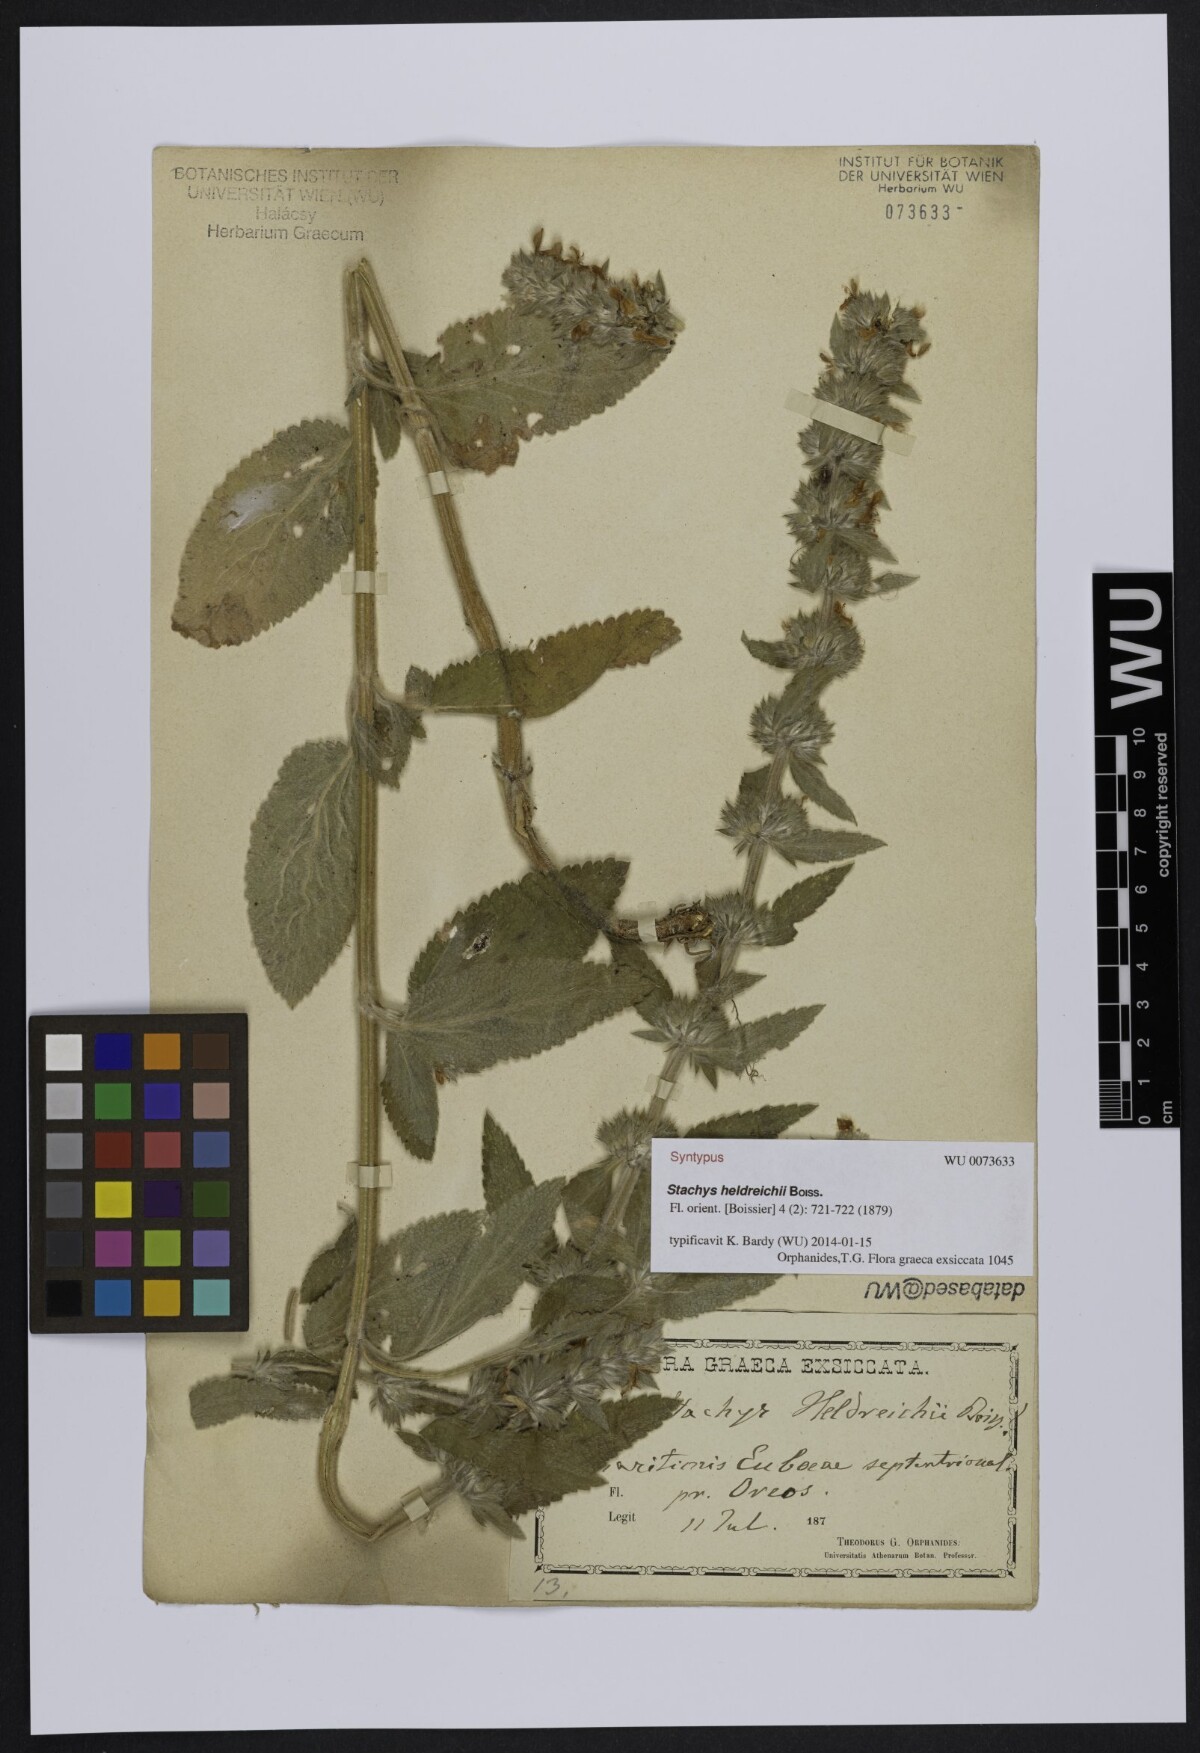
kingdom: Plantae
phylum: Tracheophyta
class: Magnoliopsida
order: Lamiales
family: Lamiaceae
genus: Stachys
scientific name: Stachys germanica
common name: Downy woundwort
